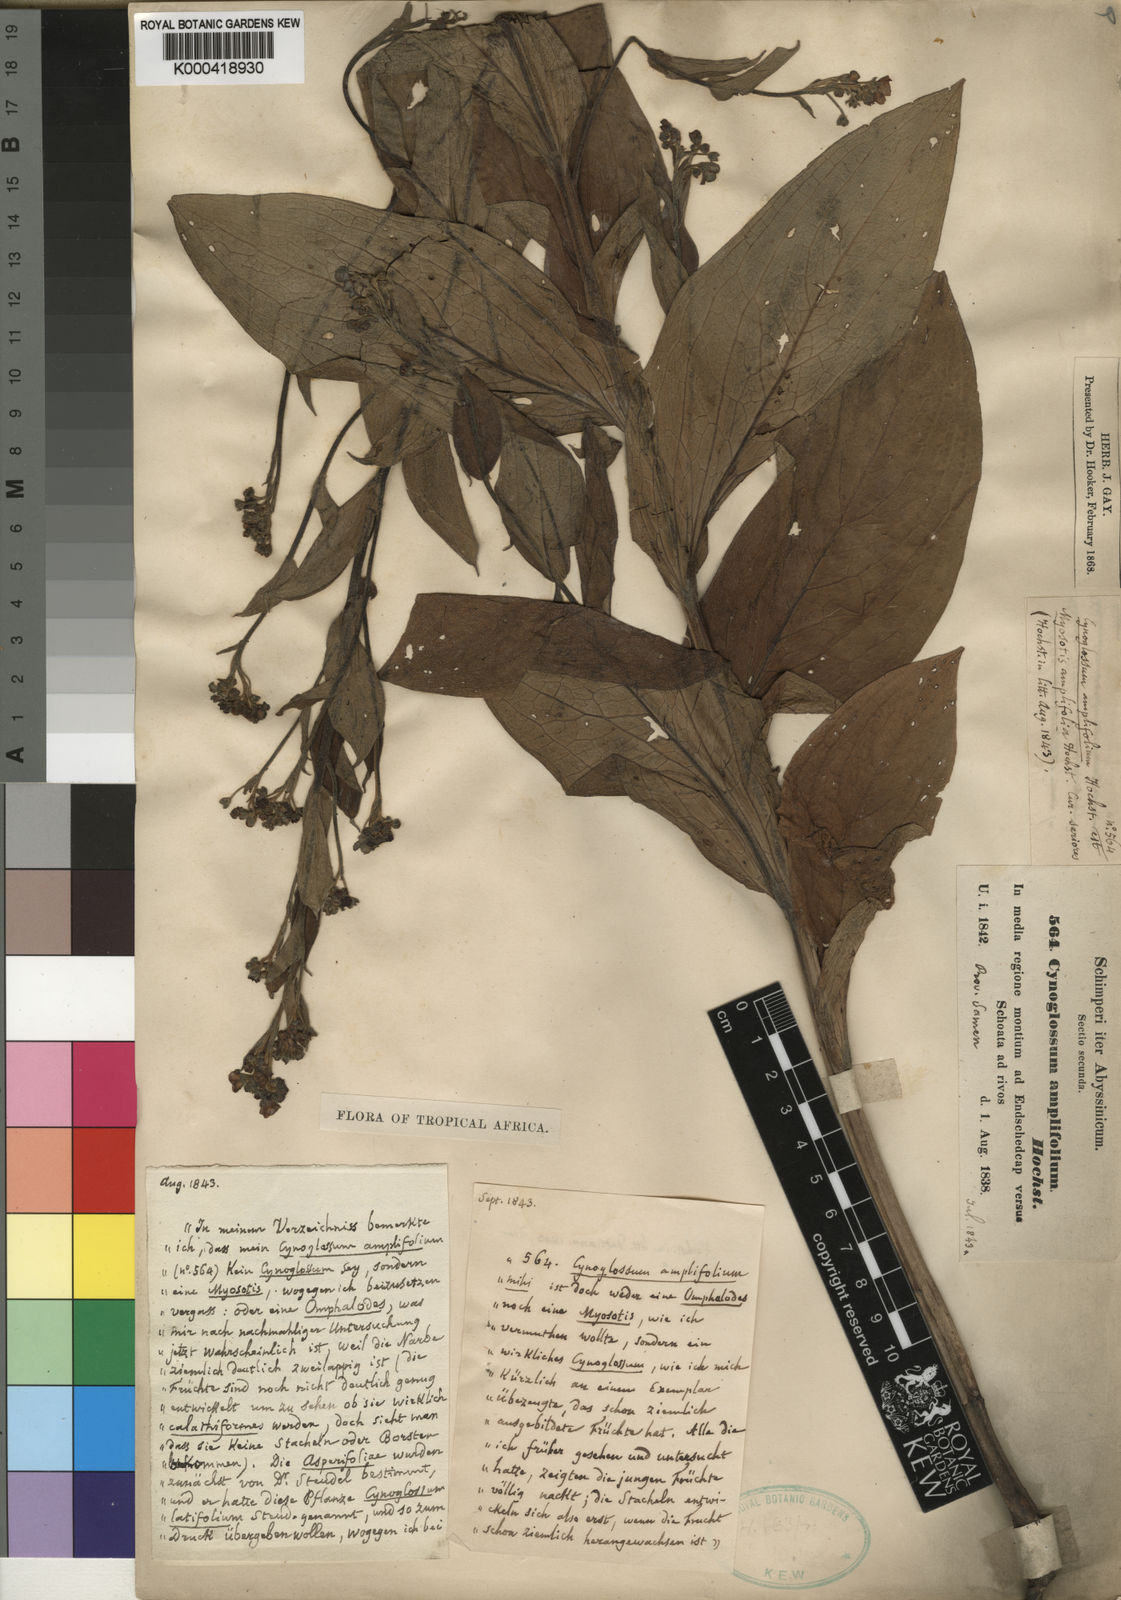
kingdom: Plantae
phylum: Tracheophyta
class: Magnoliopsida
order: Boraginales
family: Boraginaceae
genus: Cynoglossum
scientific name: Cynoglossum amplifolium
